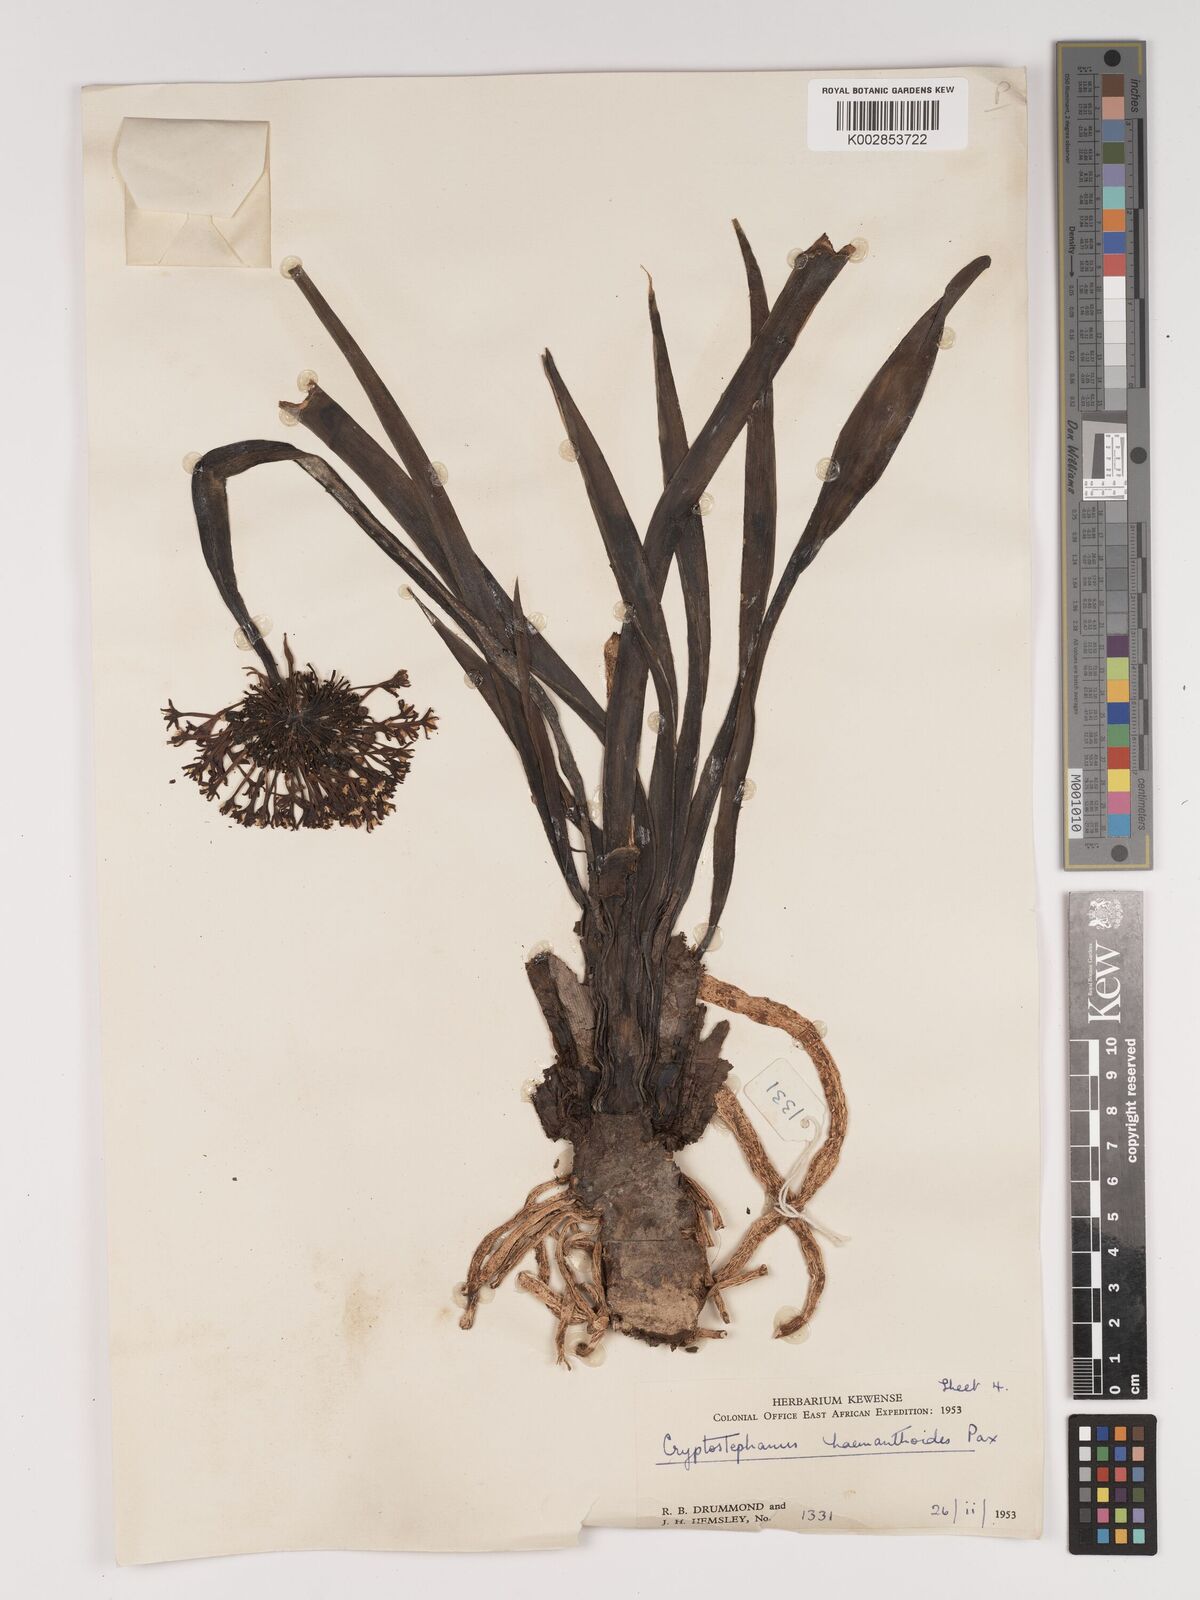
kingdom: Plantae
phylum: Tracheophyta
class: Liliopsida
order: Asparagales
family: Amaryllidaceae
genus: Cryptostephanus
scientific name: Cryptostephanus haemanthoides
